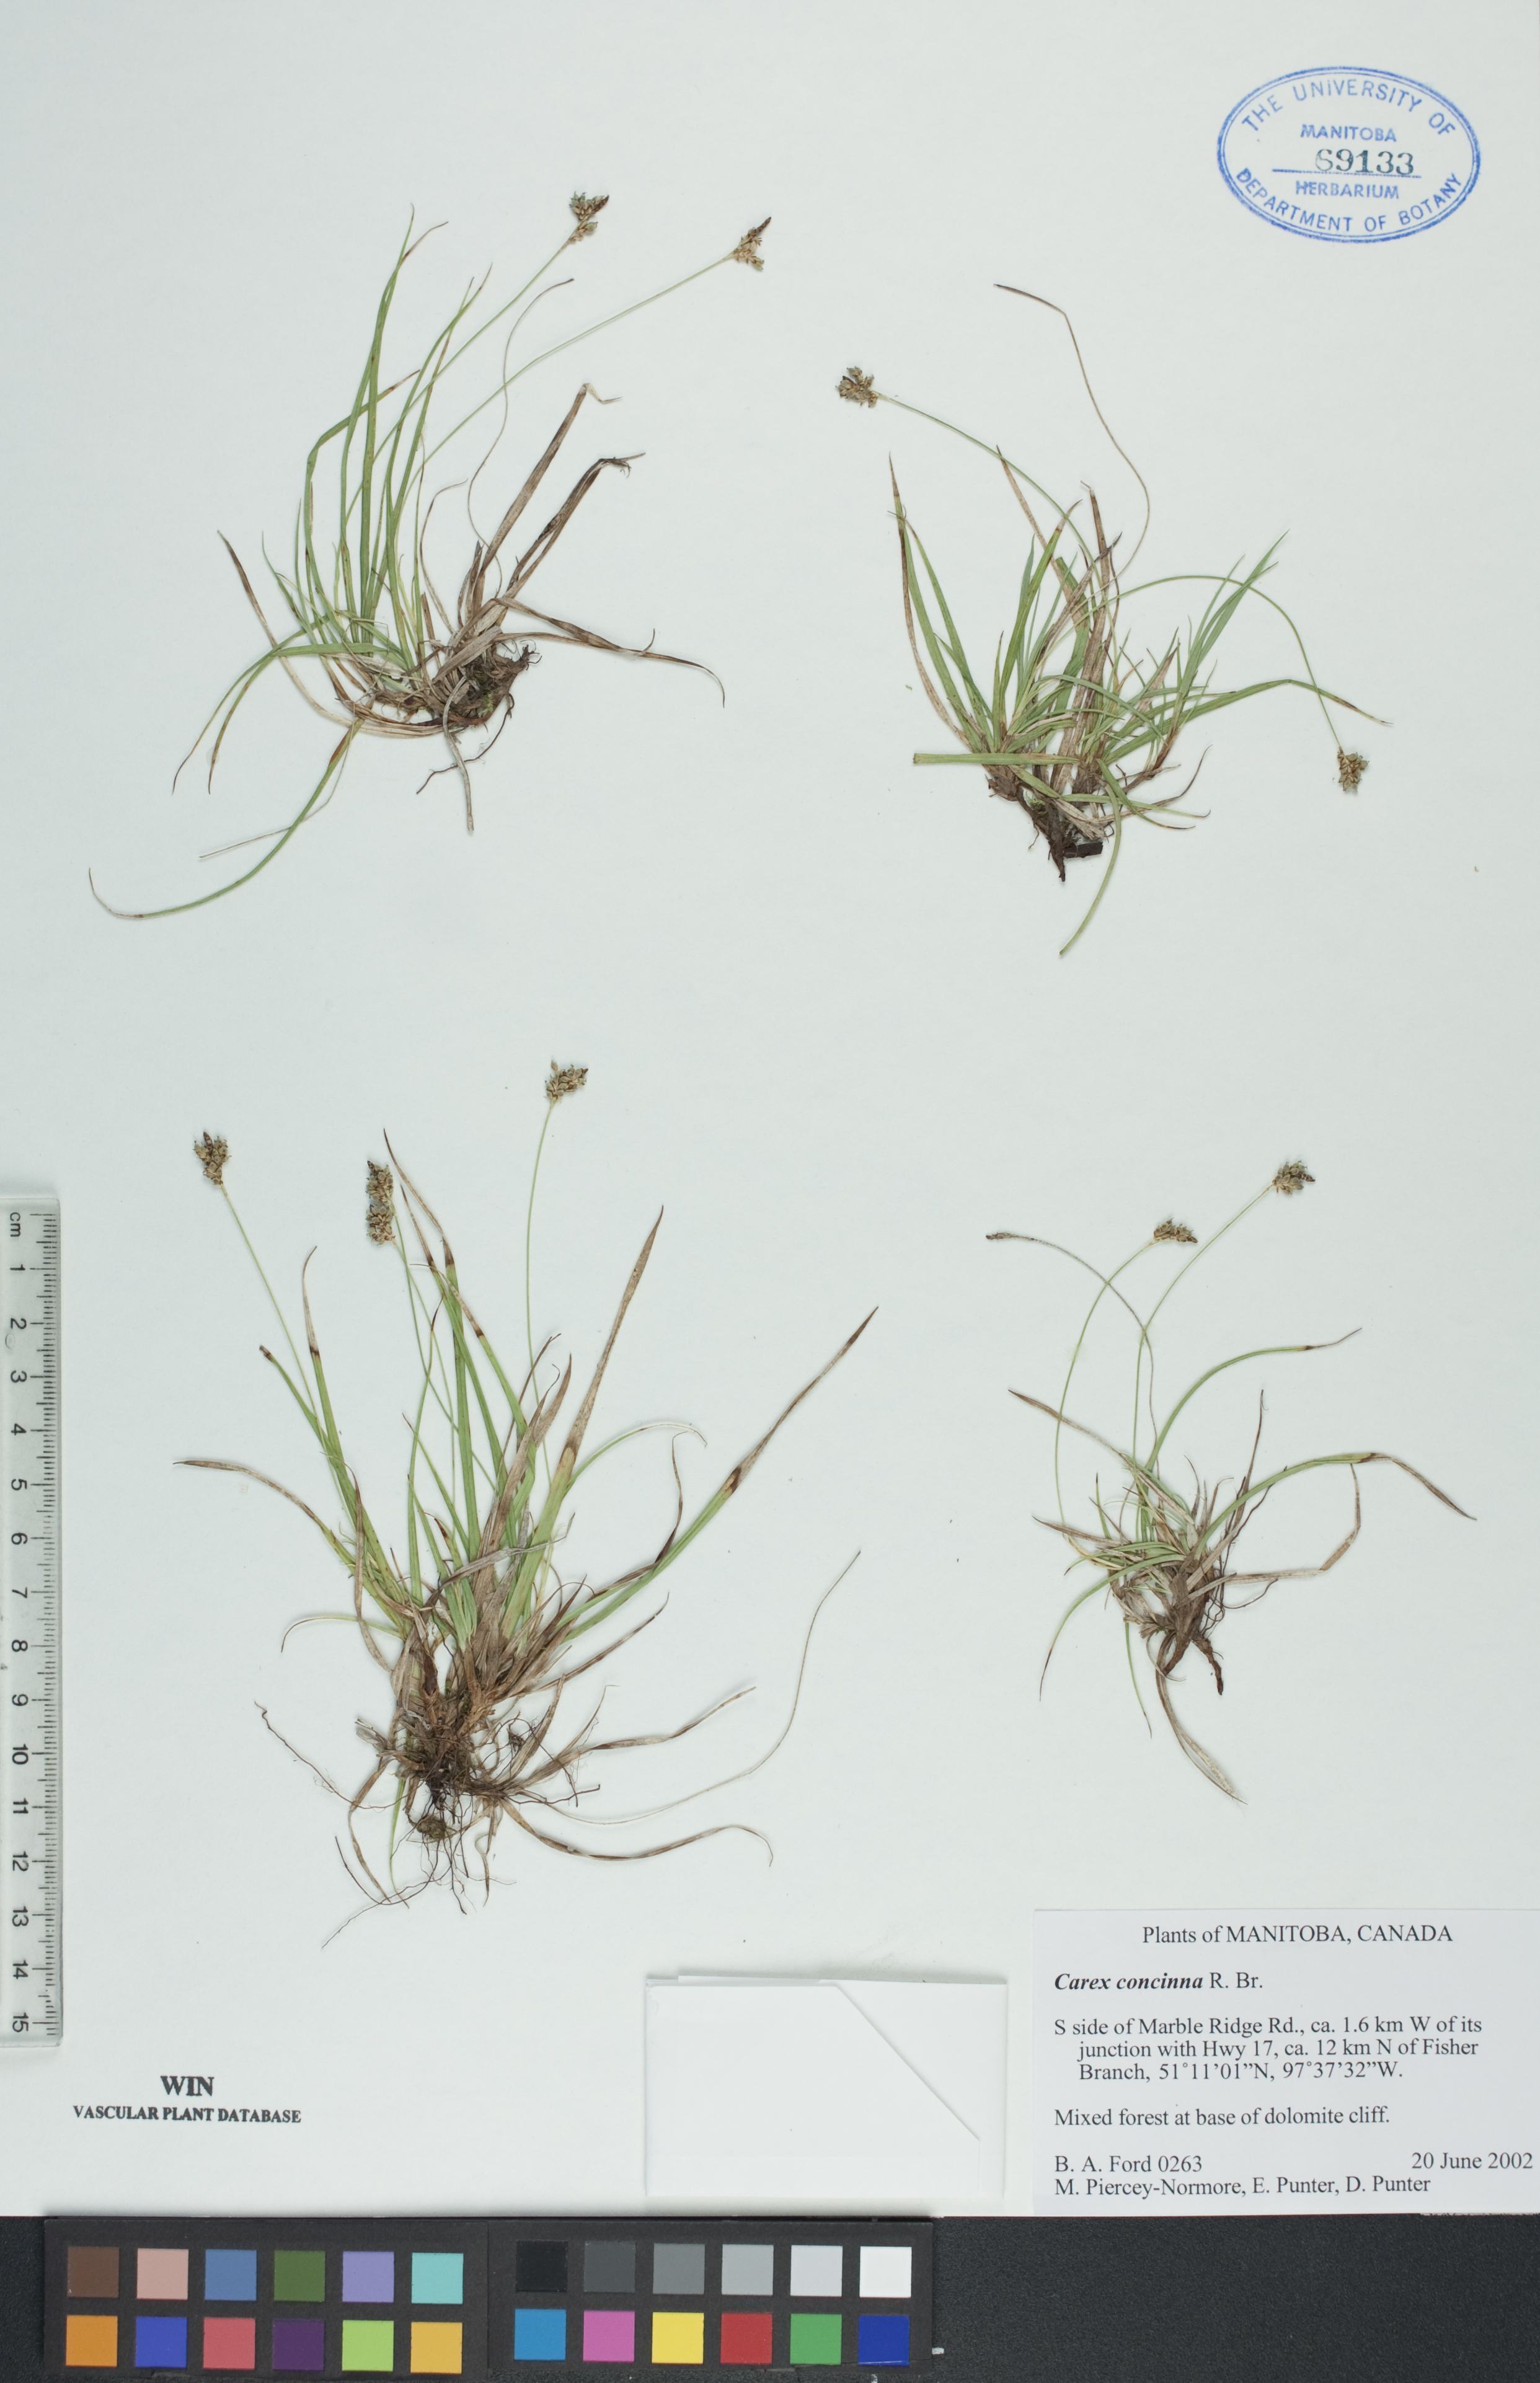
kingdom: Plantae
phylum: Tracheophyta
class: Liliopsida
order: Poales
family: Cyperaceae
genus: Carex
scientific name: Carex concinna
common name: Beautiful sedge
